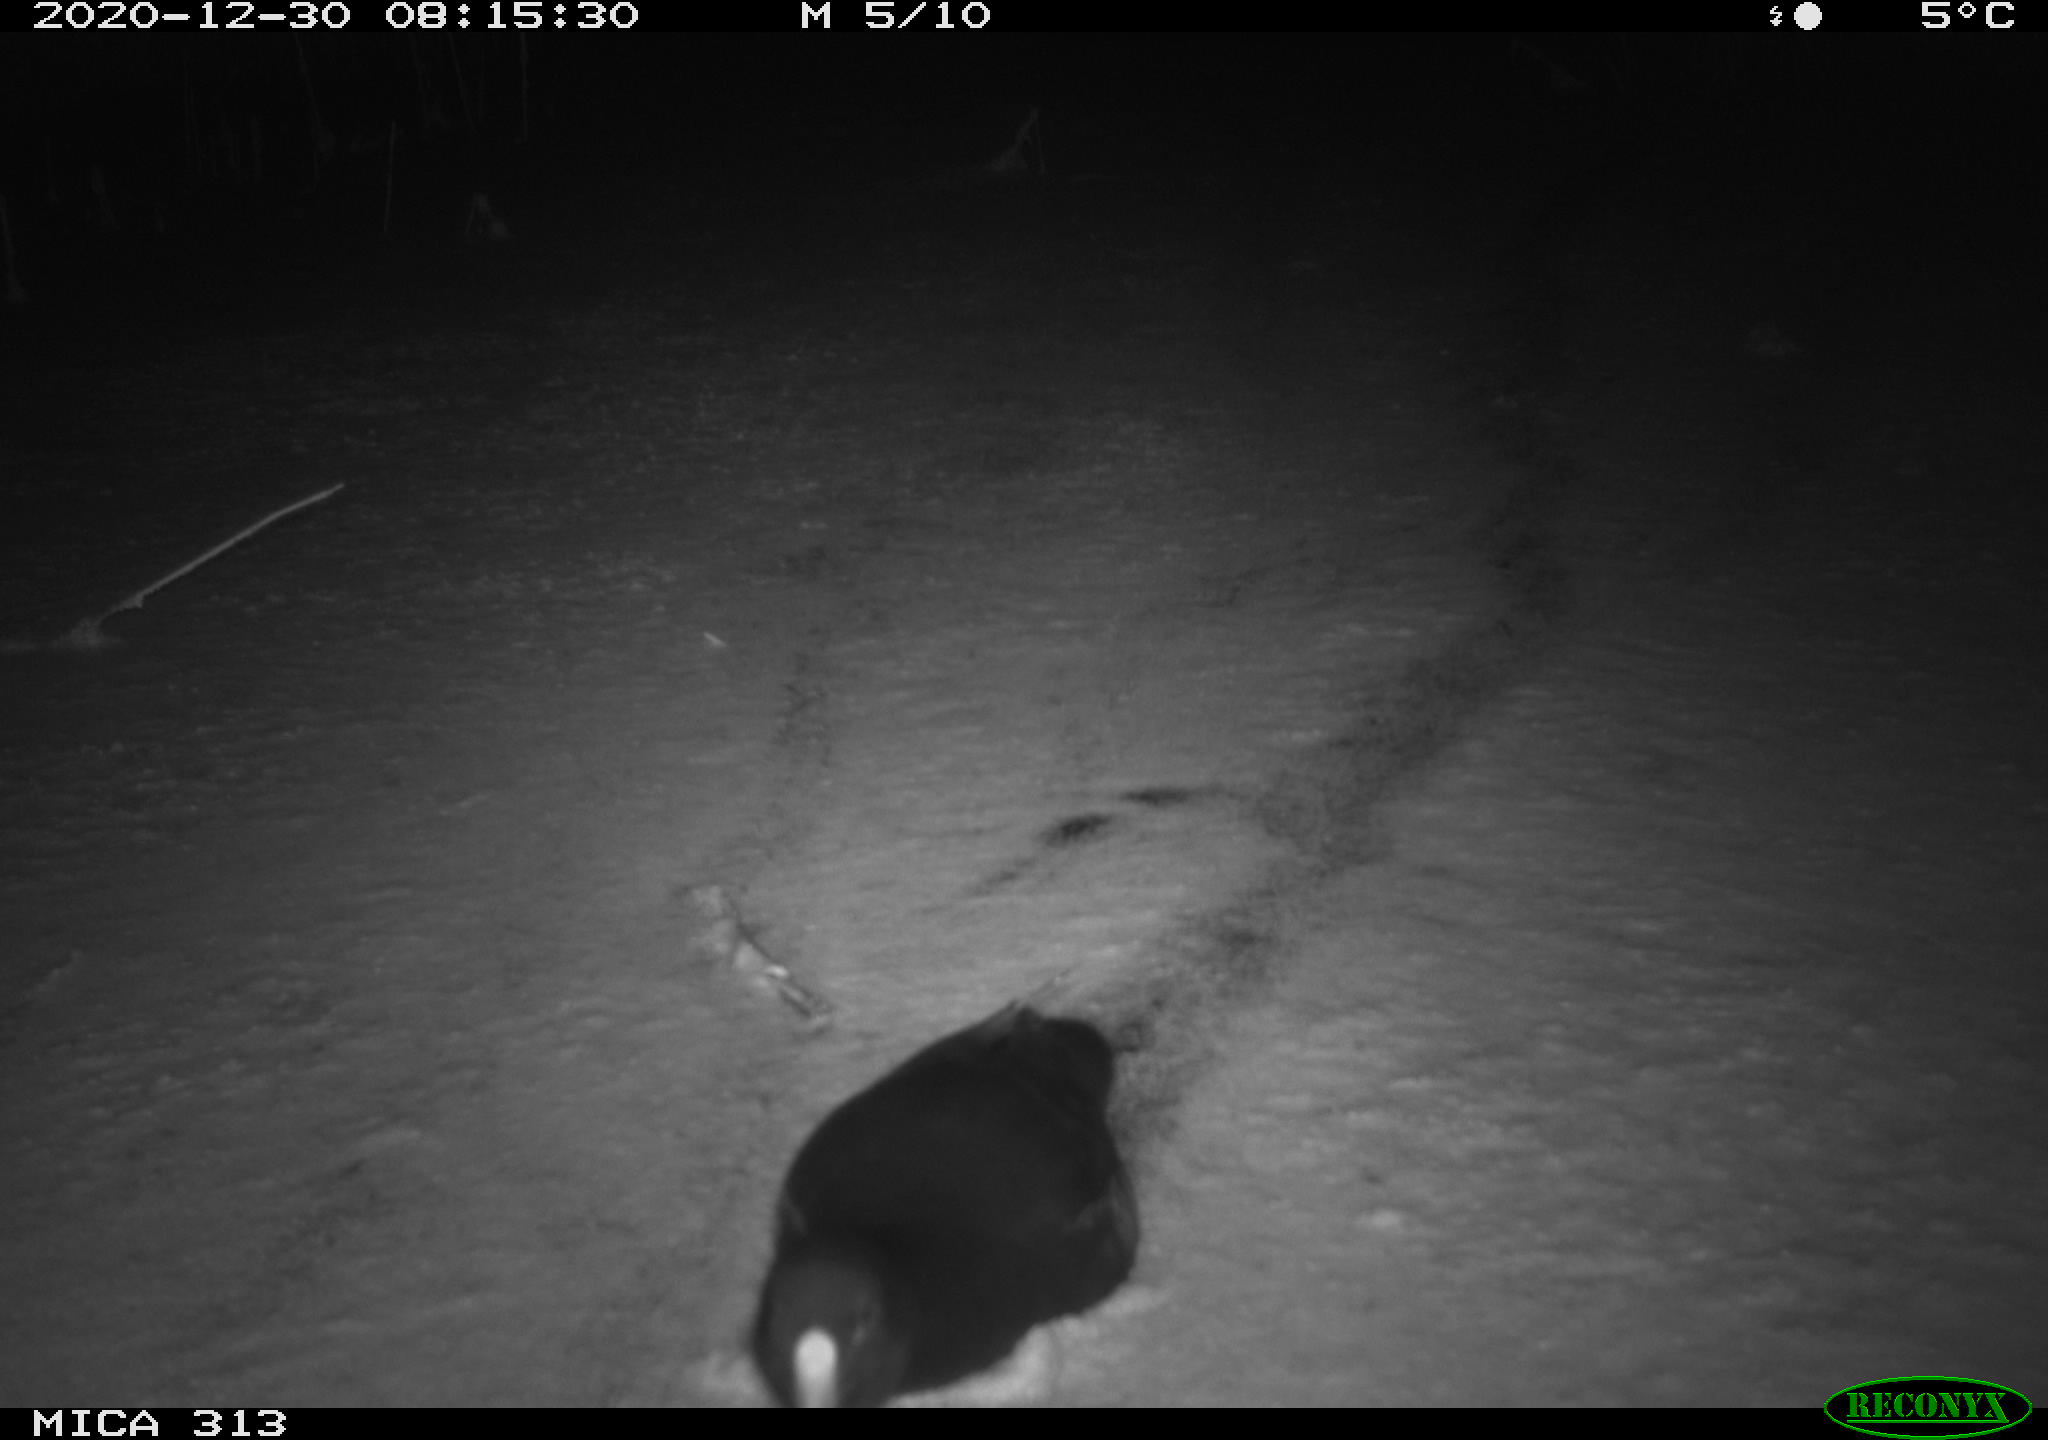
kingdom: Animalia
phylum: Chordata
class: Aves
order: Gruiformes
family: Rallidae
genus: Fulica
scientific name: Fulica atra
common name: Eurasian coot
